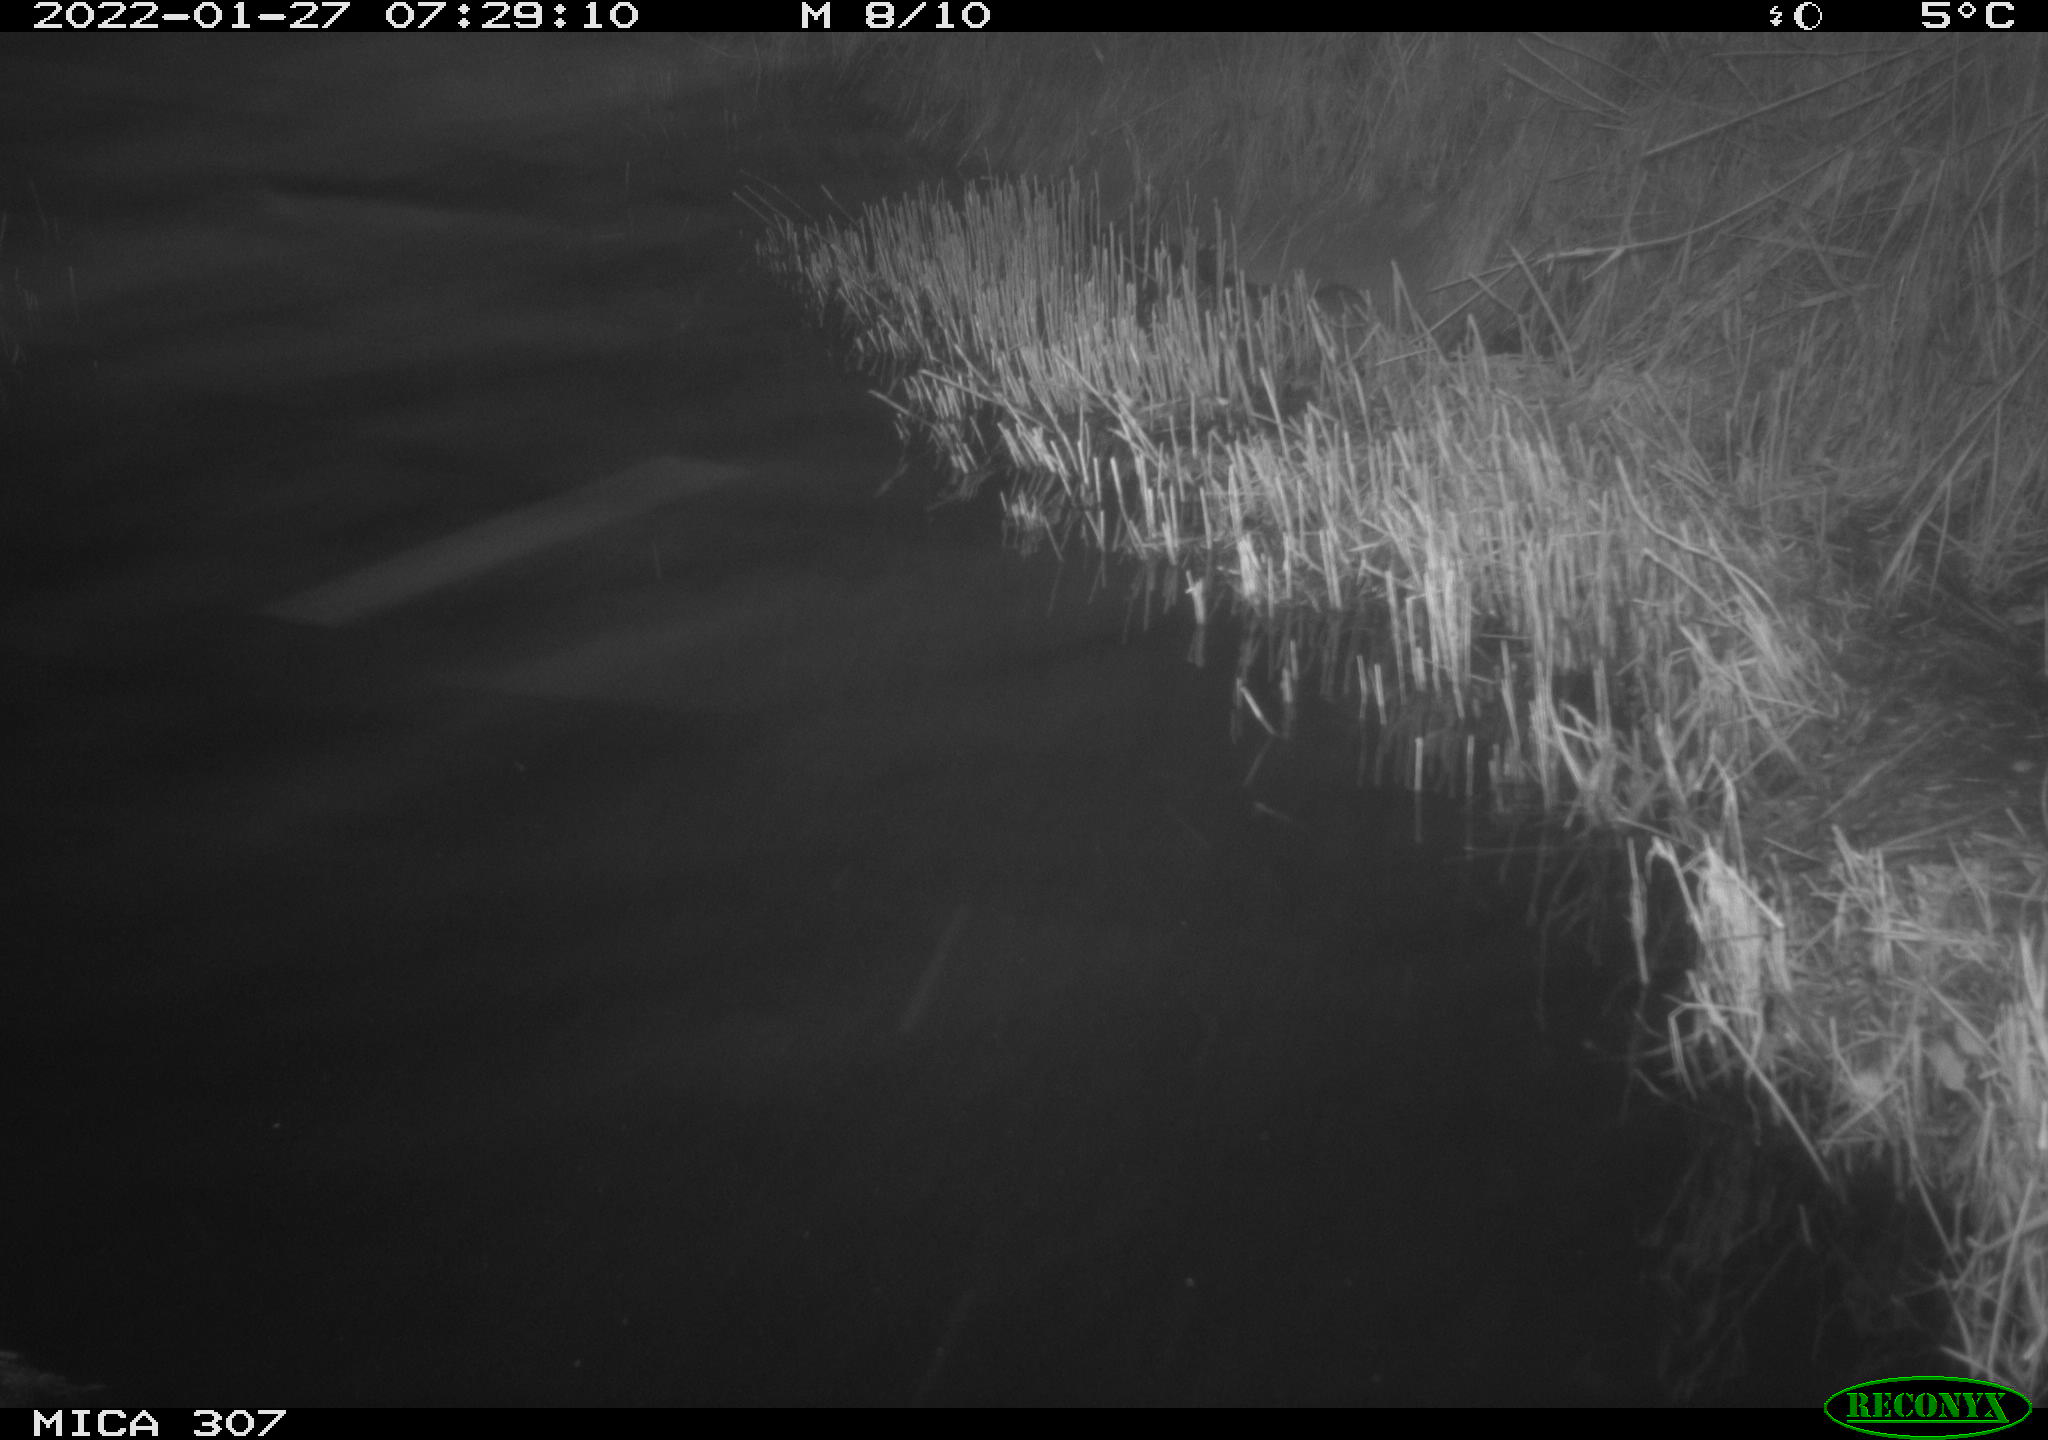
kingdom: Animalia
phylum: Chordata
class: Mammalia
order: Rodentia
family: Muridae
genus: Rattus
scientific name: Rattus norvegicus
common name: Brown rat
